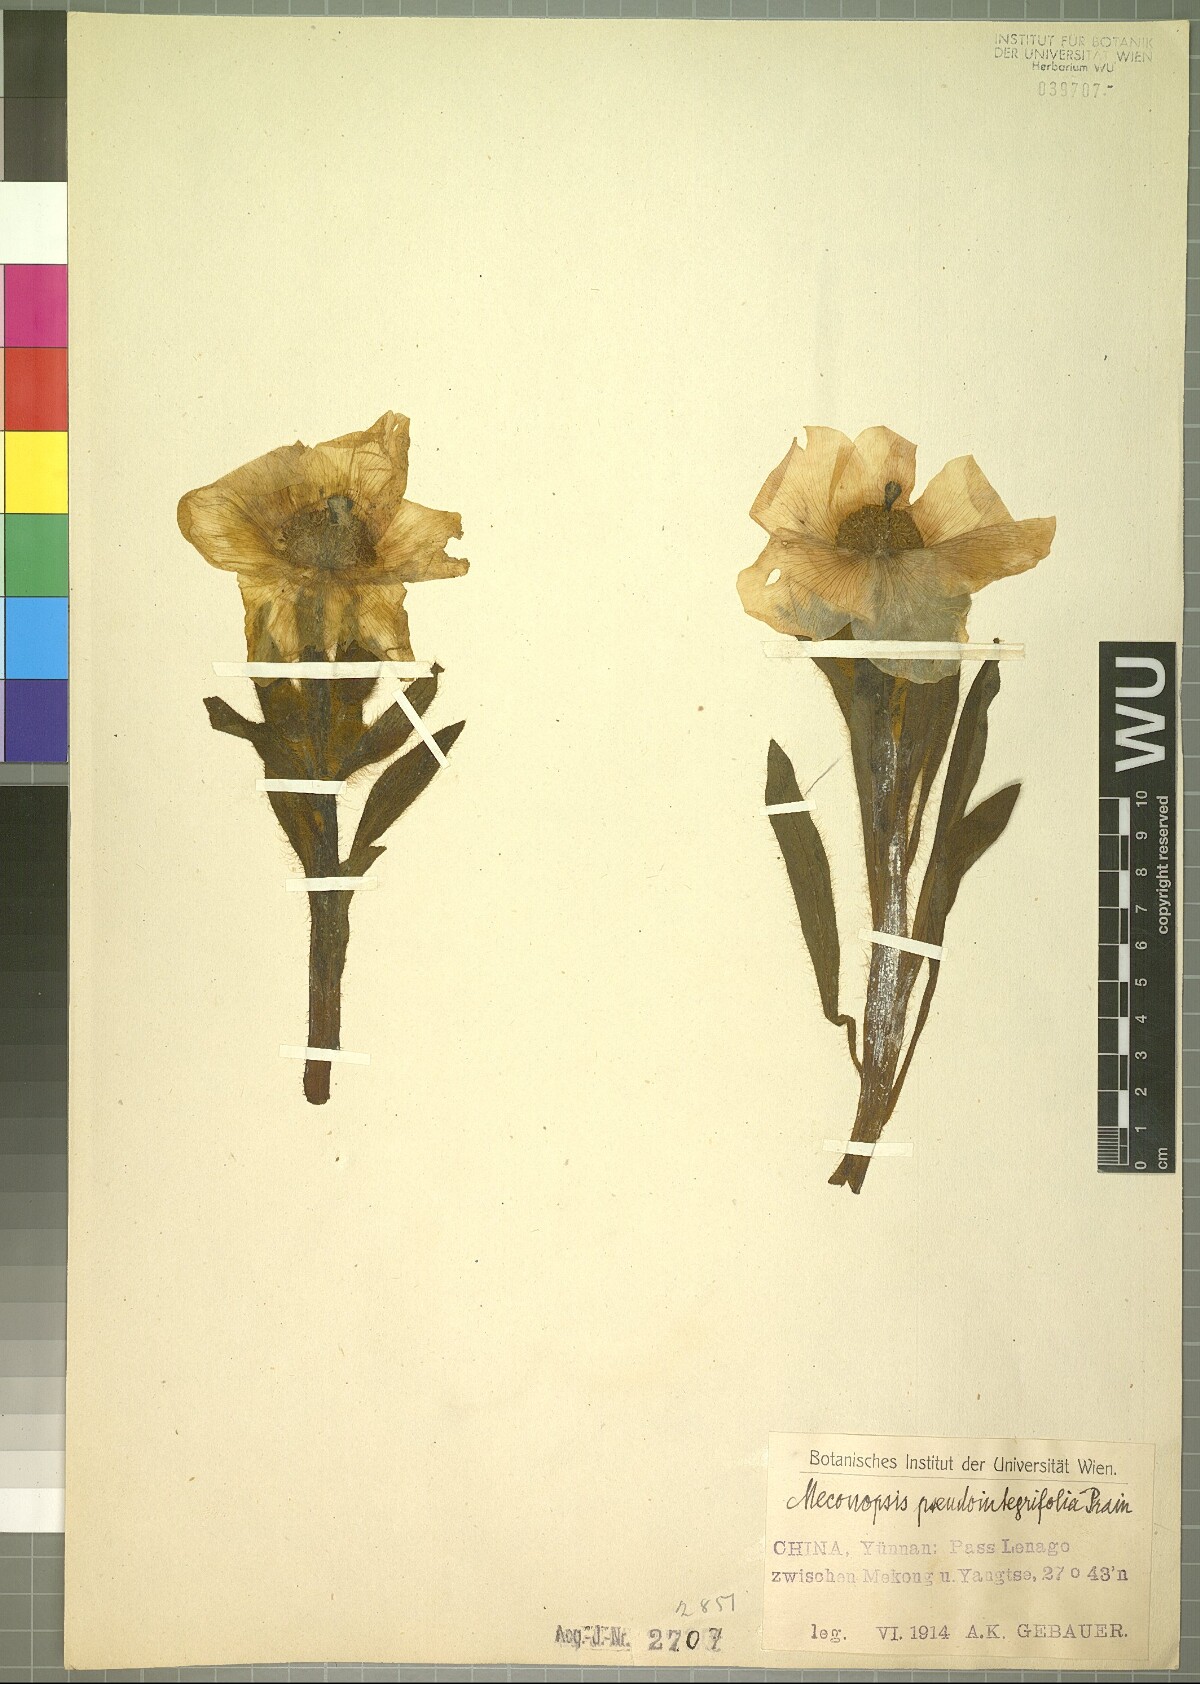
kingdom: Plantae
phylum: Tracheophyta
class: Magnoliopsida
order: Ranunculales
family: Papaveraceae
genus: Meconopsis
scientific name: Meconopsis pseudointegrifolia
